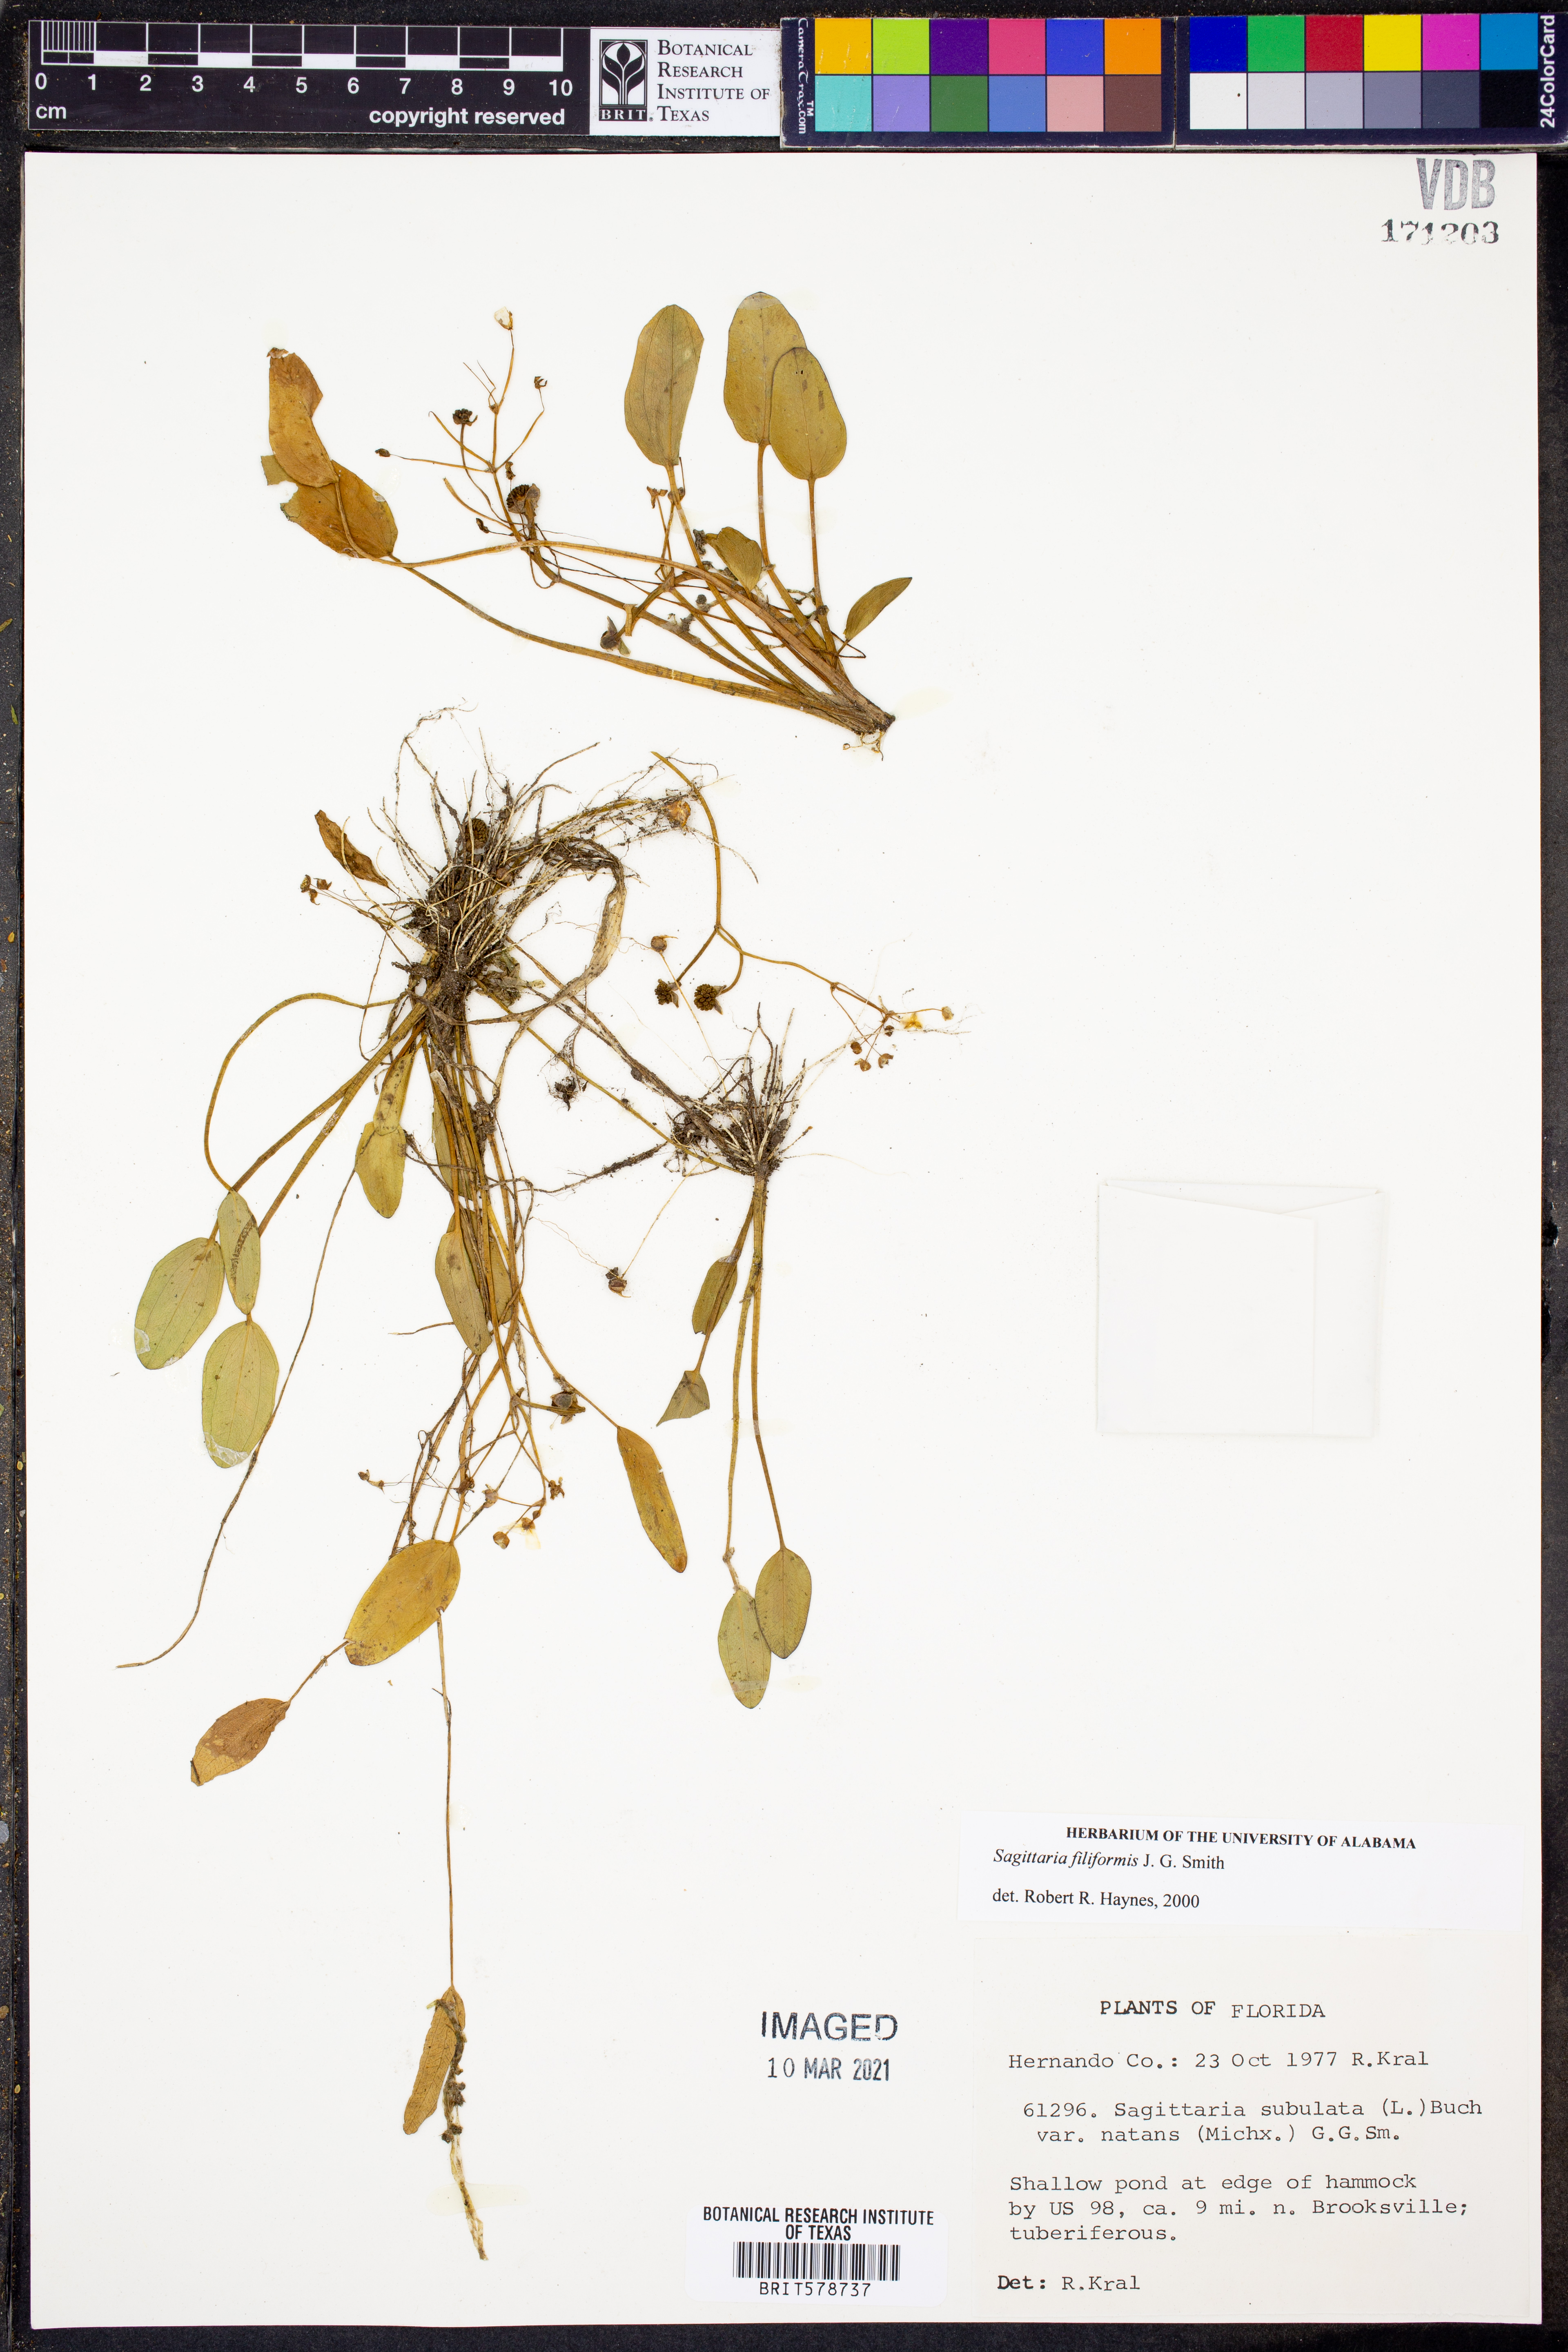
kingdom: Plantae
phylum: Tracheophyta
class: Liliopsida
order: Alismatales
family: Alismataceae
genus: Sagittaria
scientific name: Sagittaria filiformis
